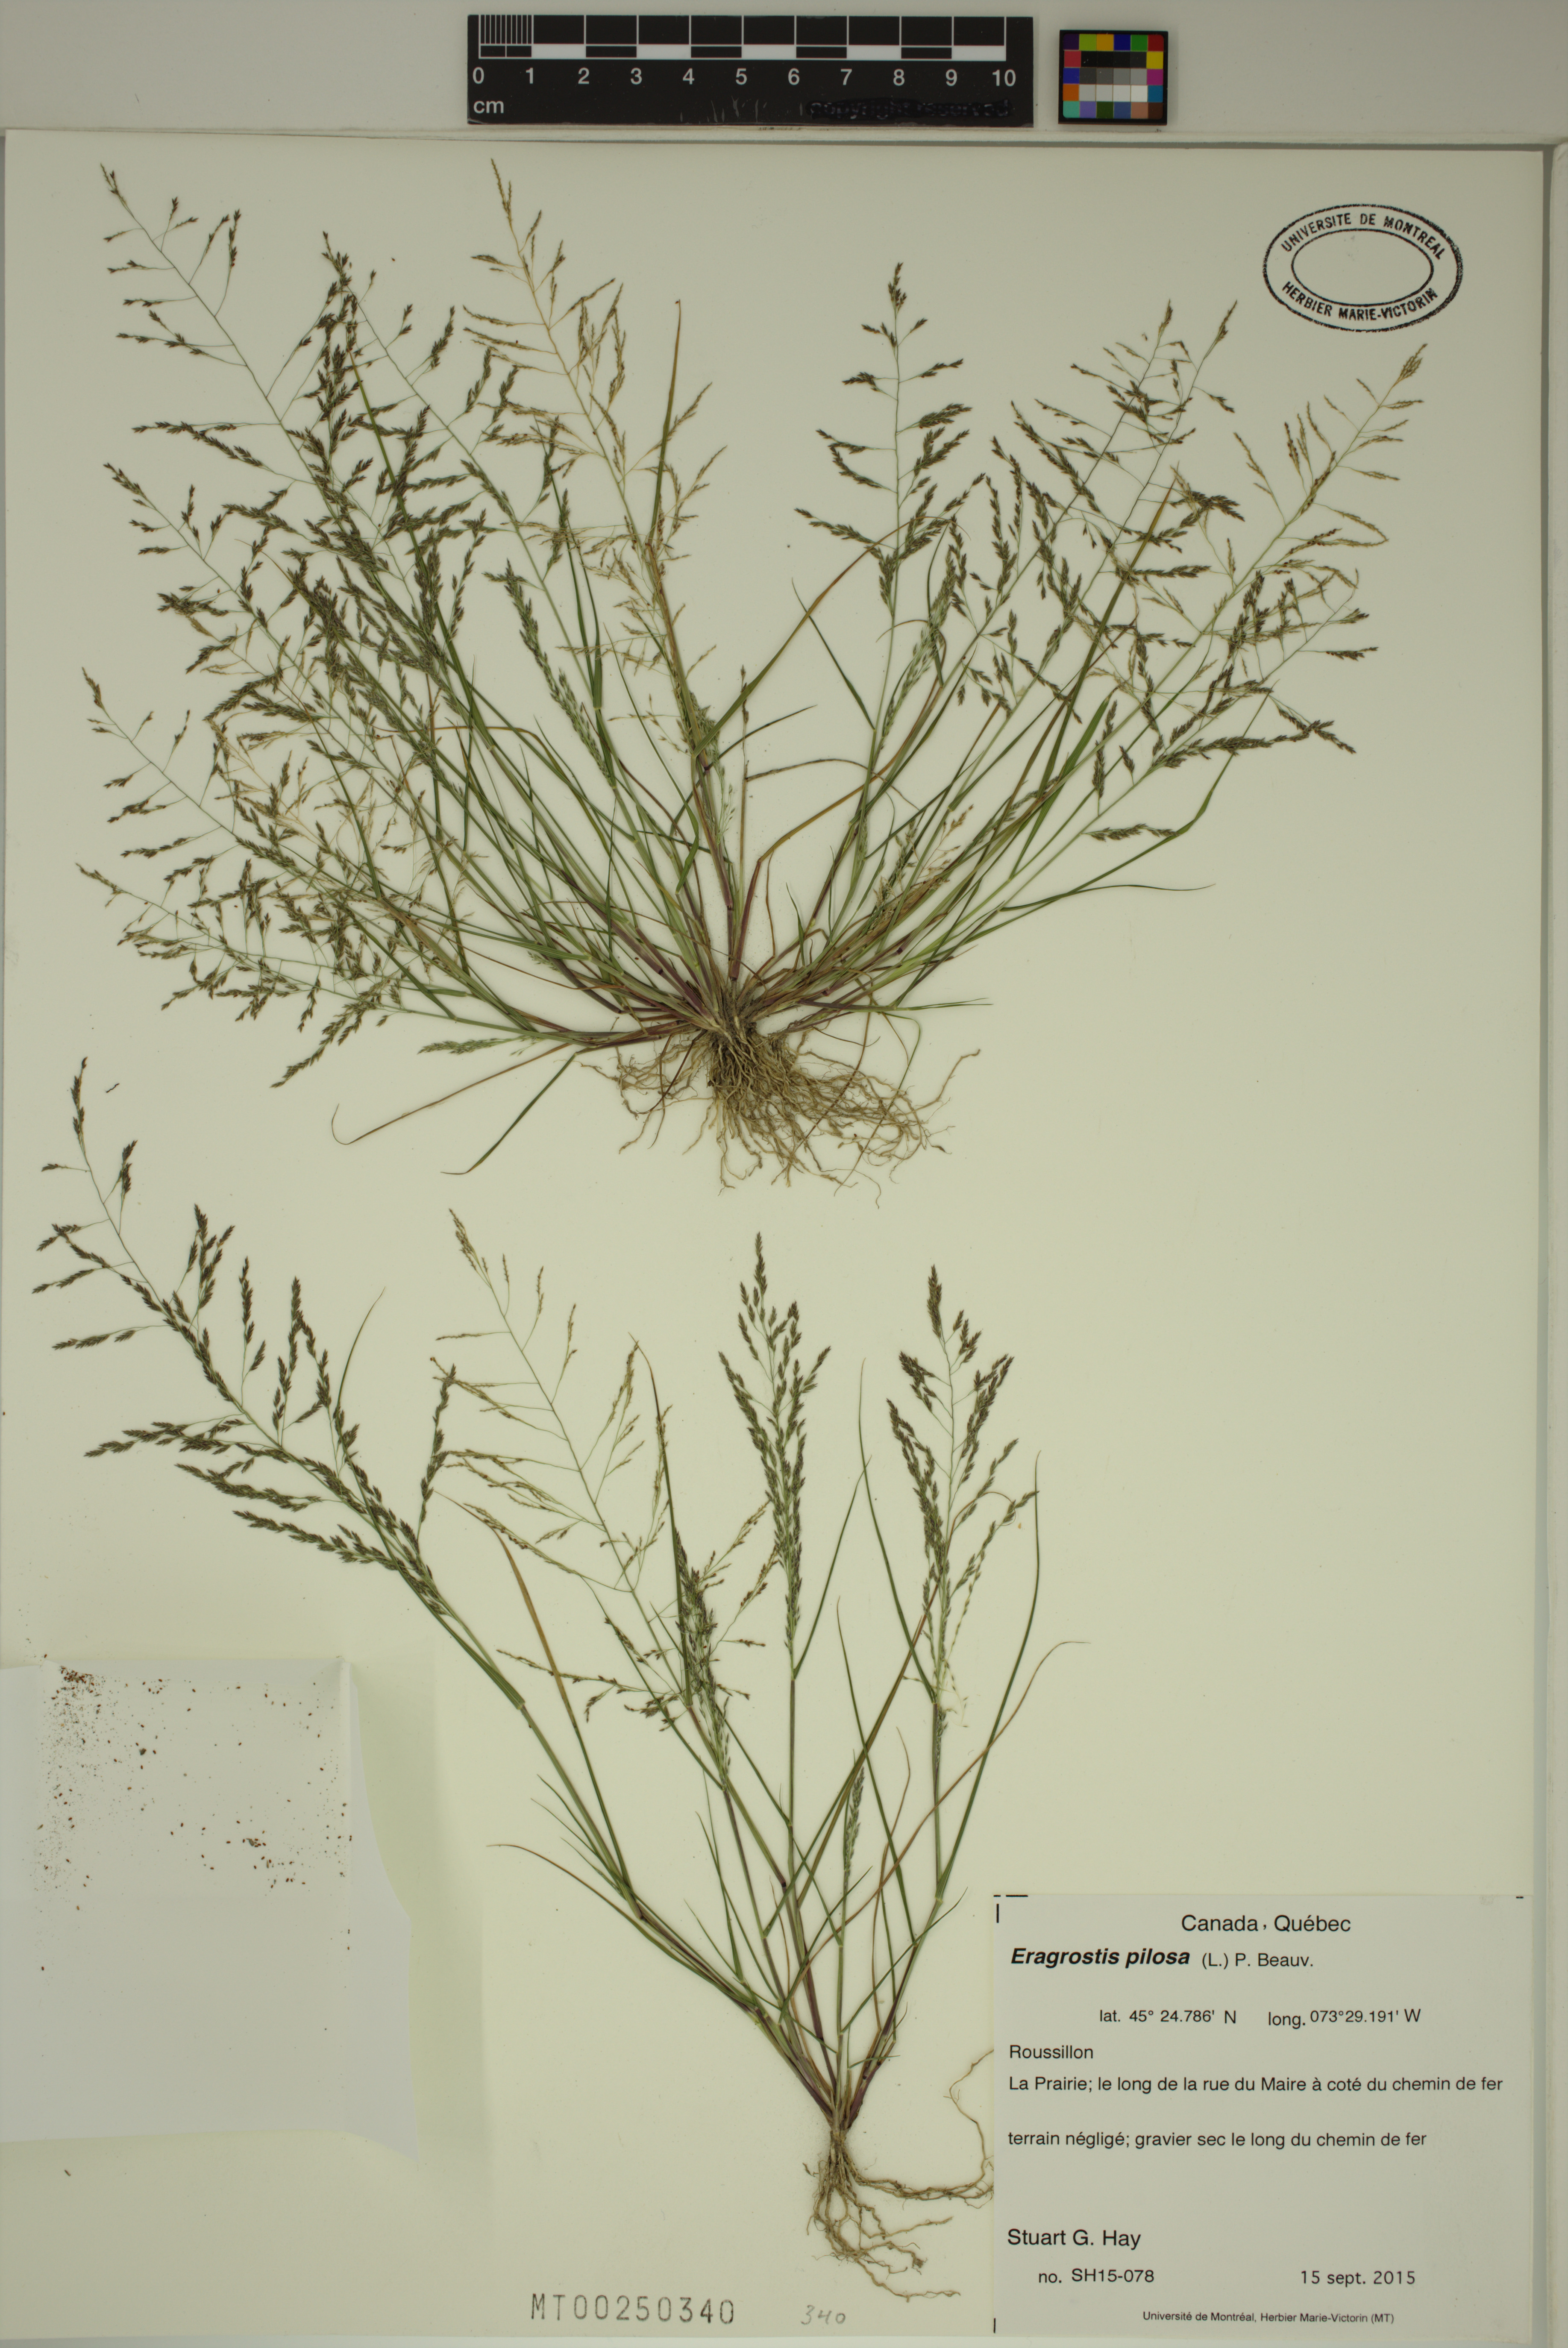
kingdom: Plantae
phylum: Tracheophyta
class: Liliopsida
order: Poales
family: Poaceae
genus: Eragrostis
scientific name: Eragrostis pilosa
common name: Indian lovegrass
